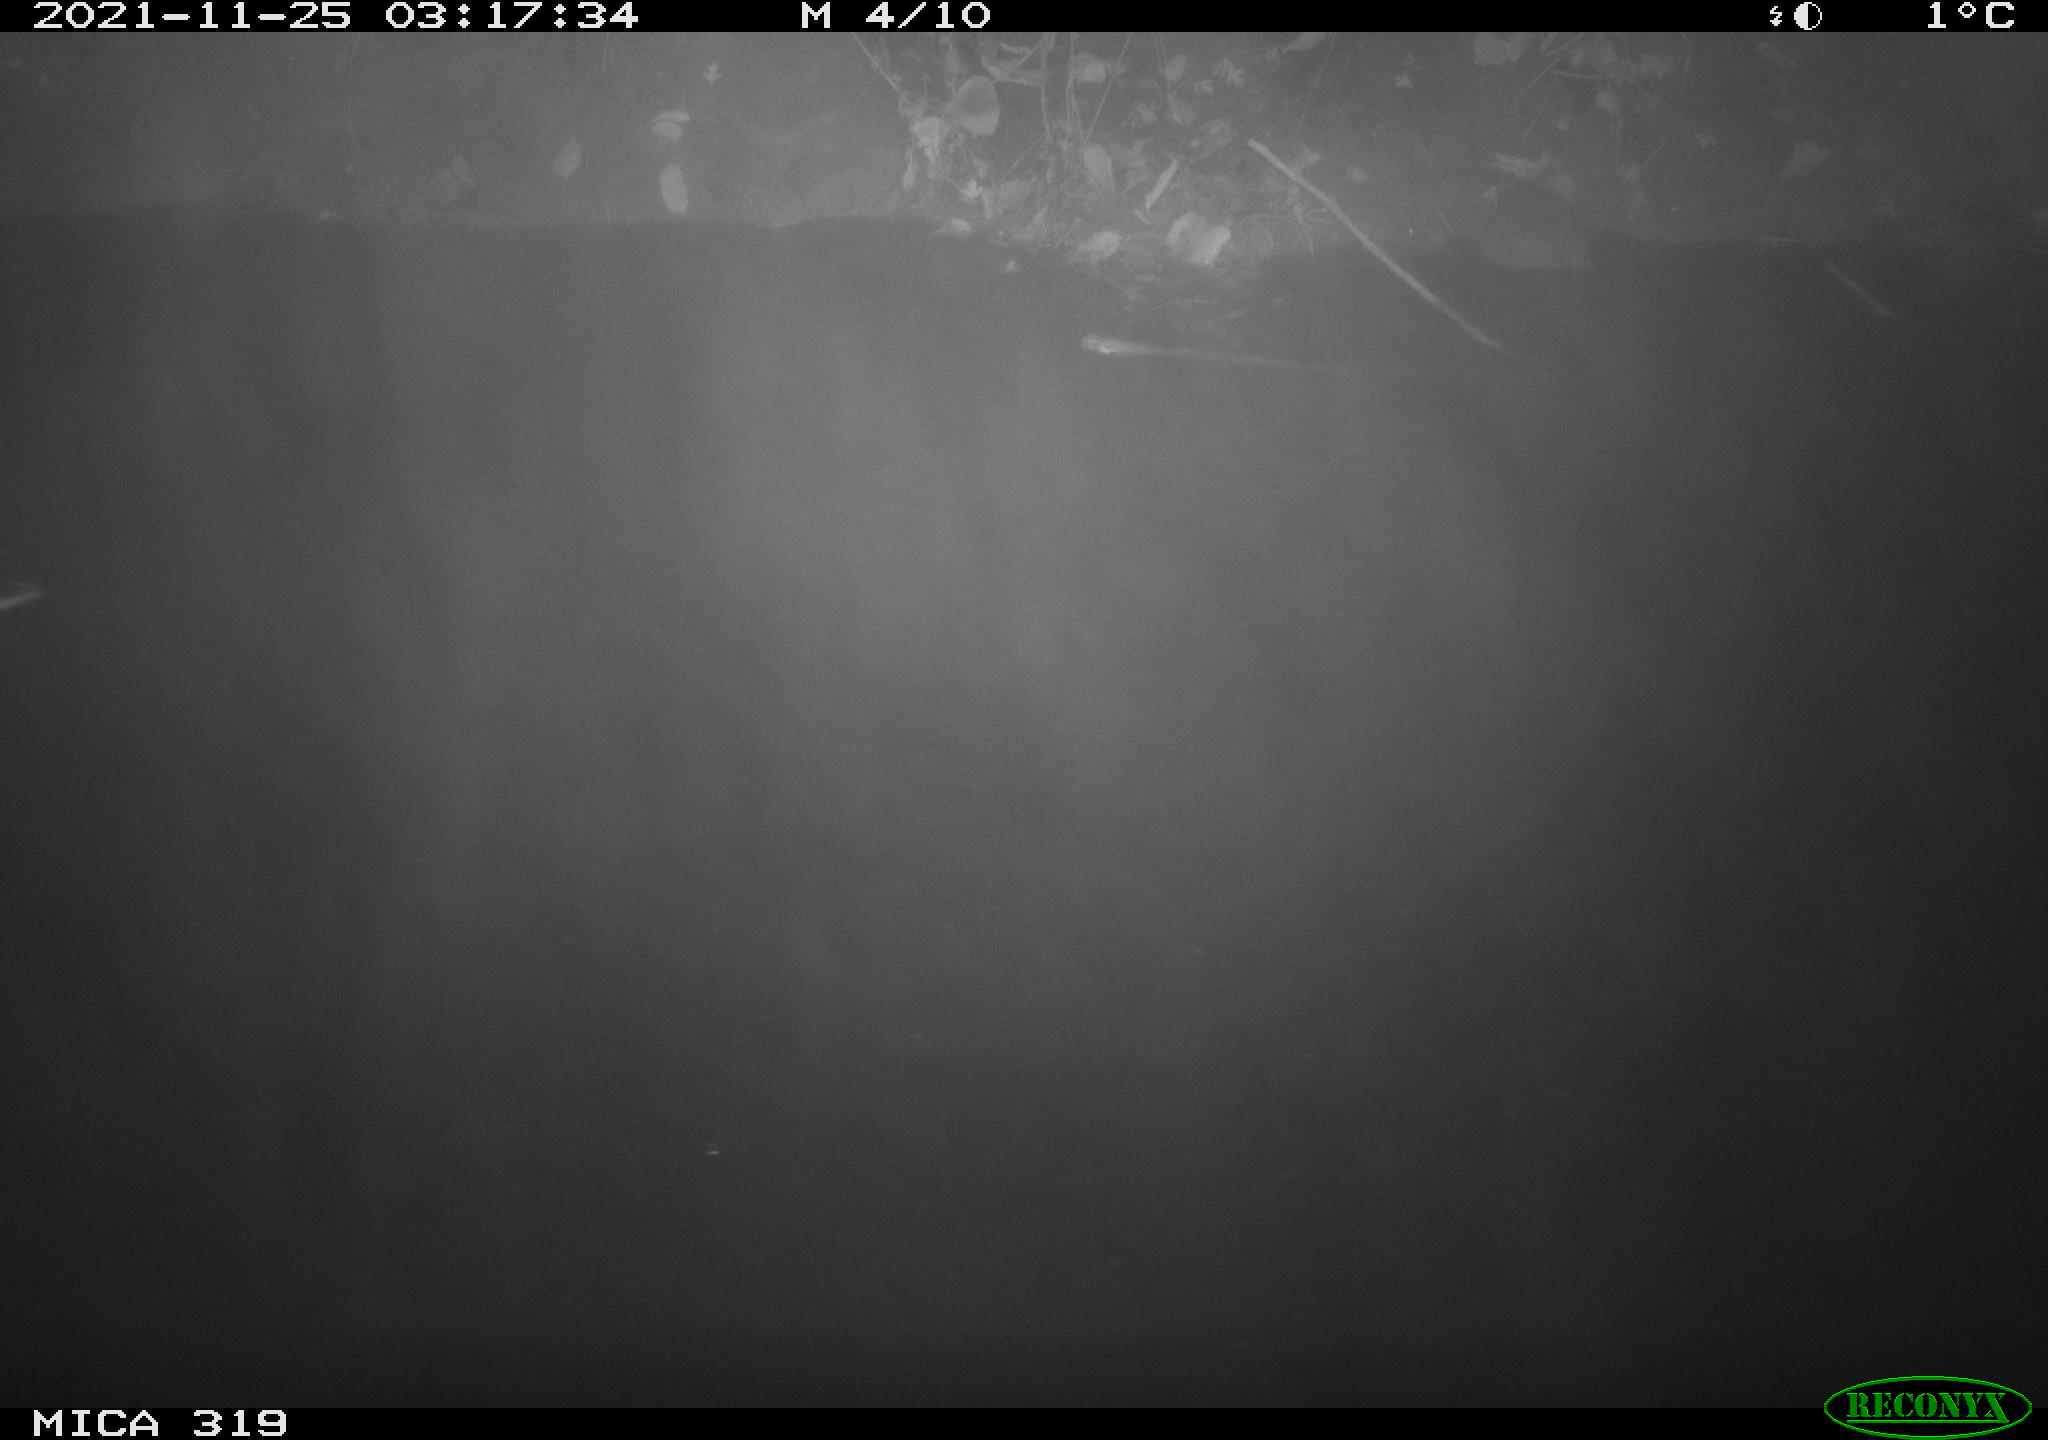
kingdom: Animalia
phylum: Chordata
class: Aves
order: Anseriformes
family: Anatidae
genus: Anas
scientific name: Anas platyrhynchos
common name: Mallard
